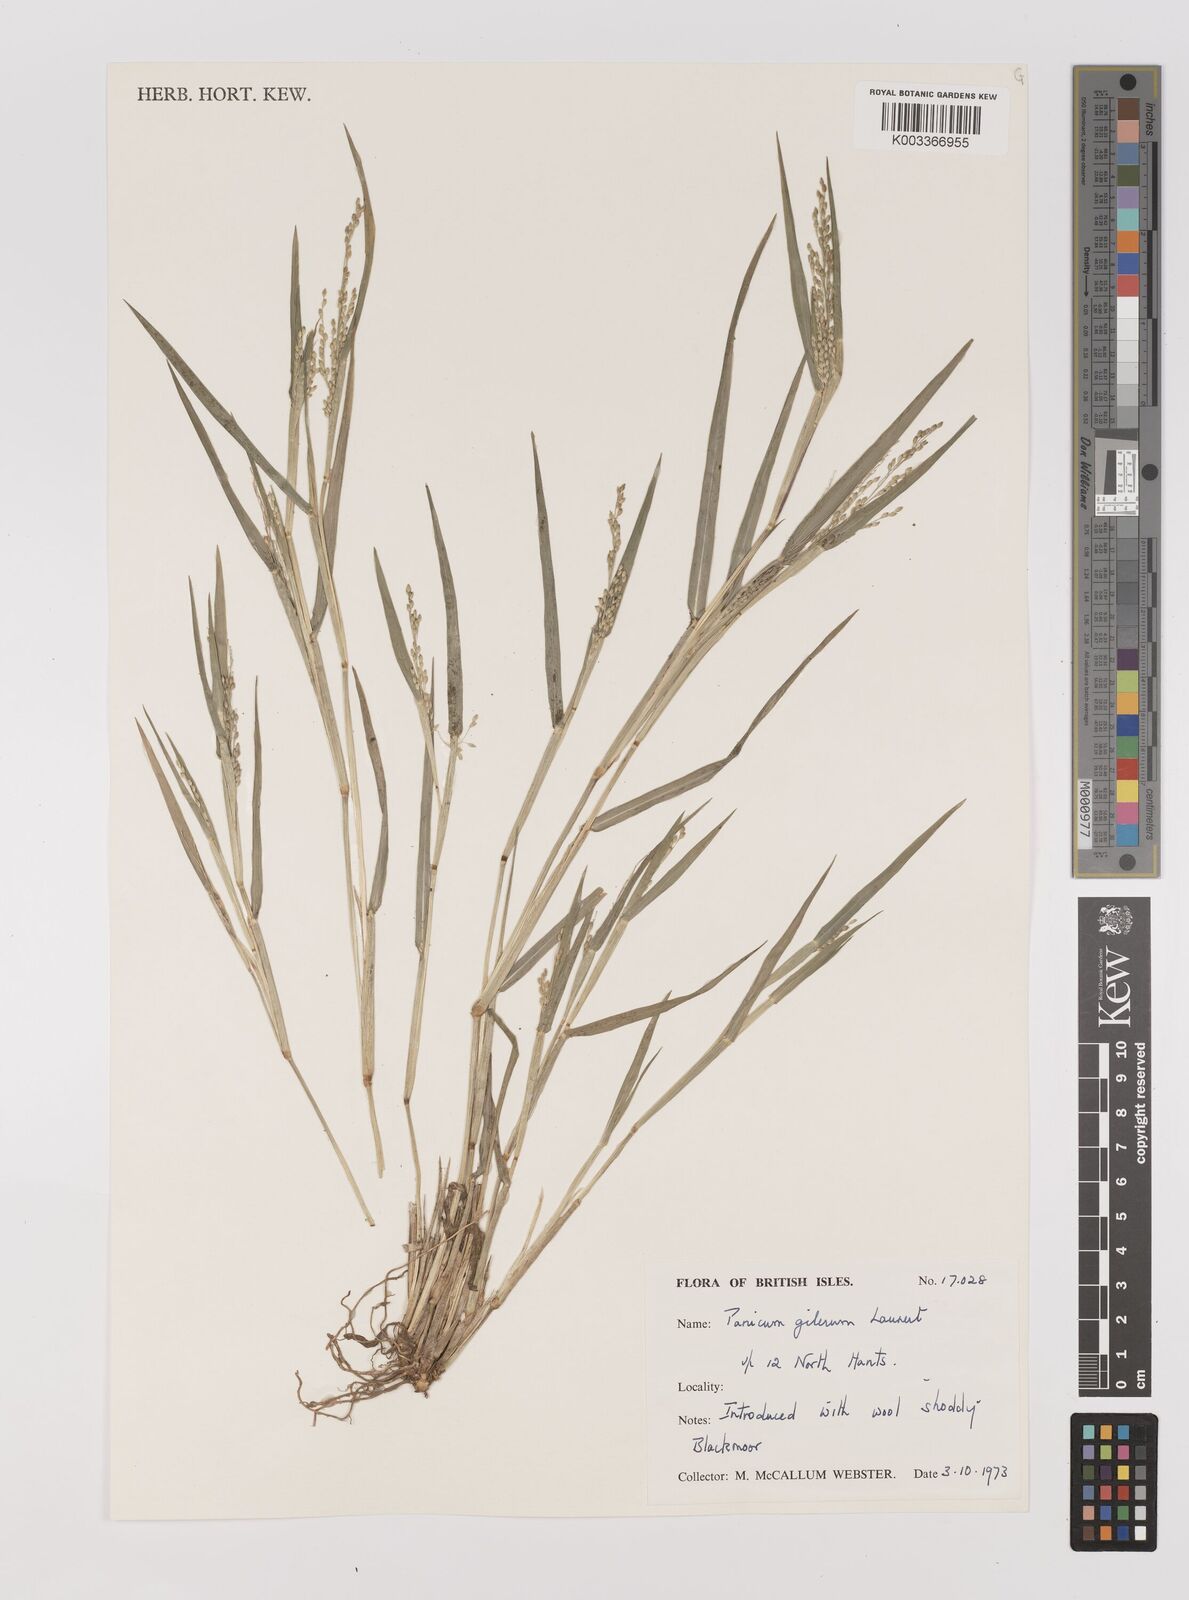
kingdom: Plantae
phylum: Tracheophyta
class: Liliopsida
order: Poales
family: Poaceae
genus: Panicum
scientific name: Panicum gilvum
